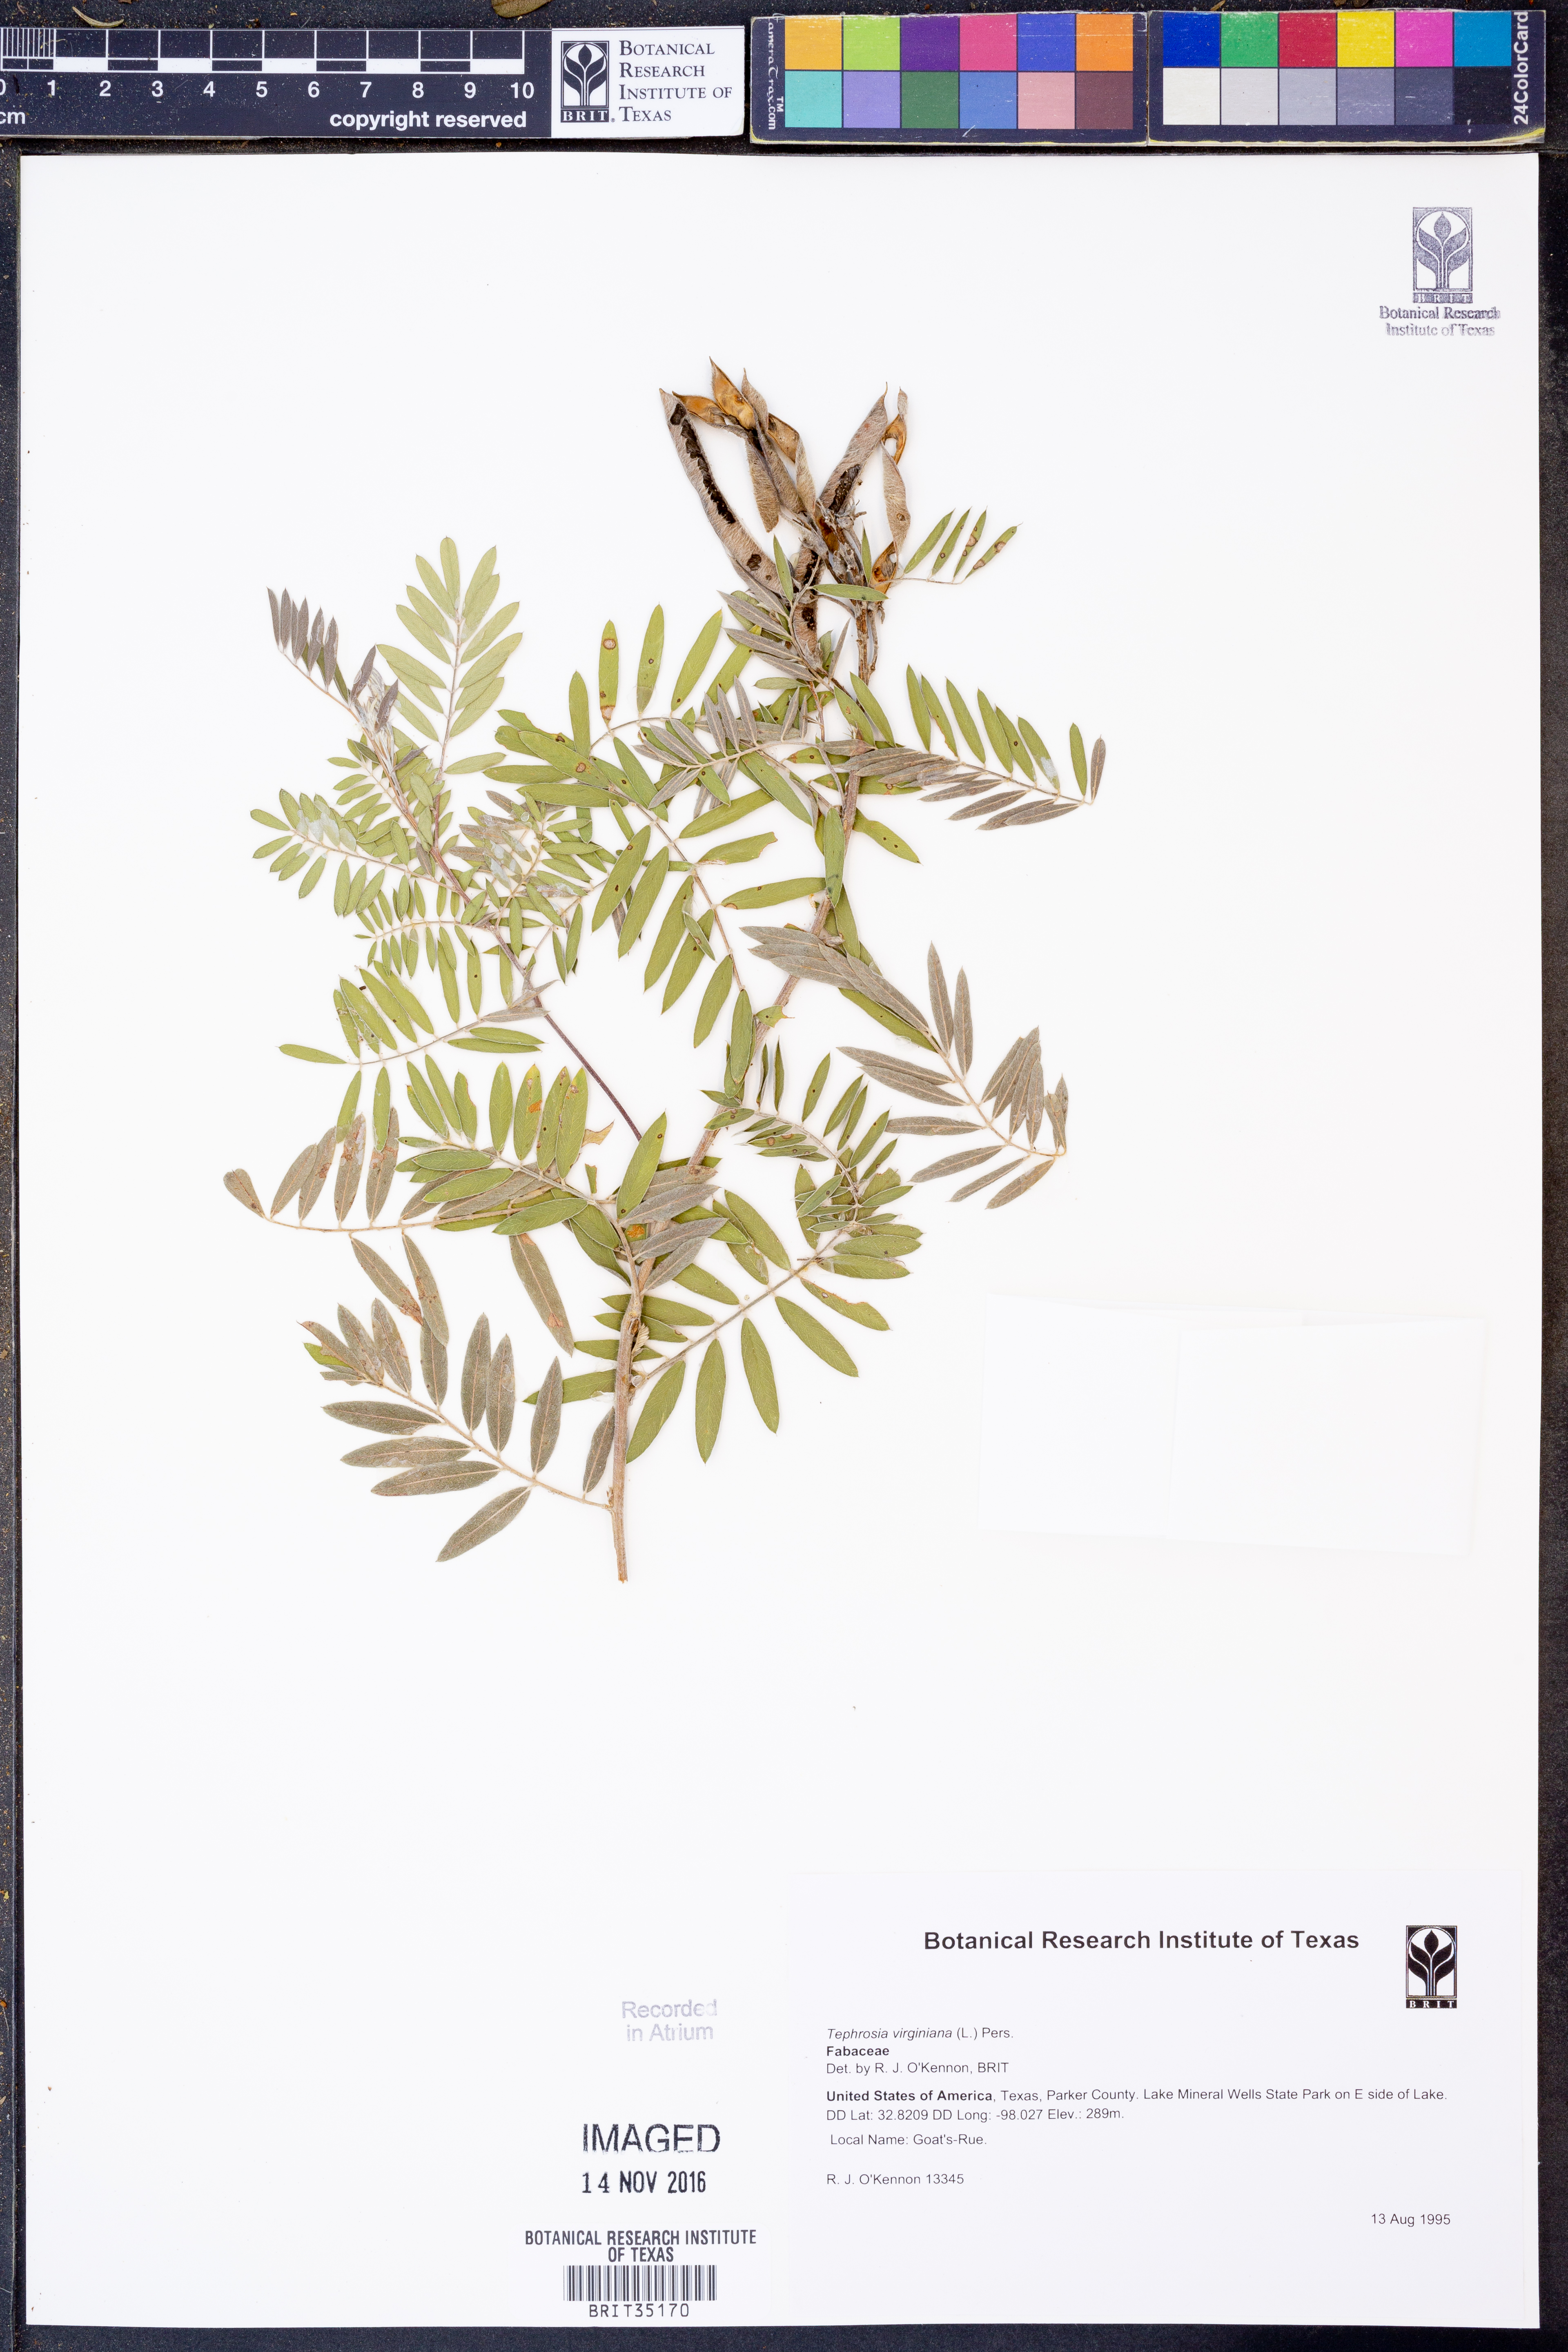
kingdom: Plantae
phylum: Tracheophyta
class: Magnoliopsida
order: Fabales
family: Fabaceae
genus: Tephrosia
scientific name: Tephrosia virginiana
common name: Rabbit-pea
